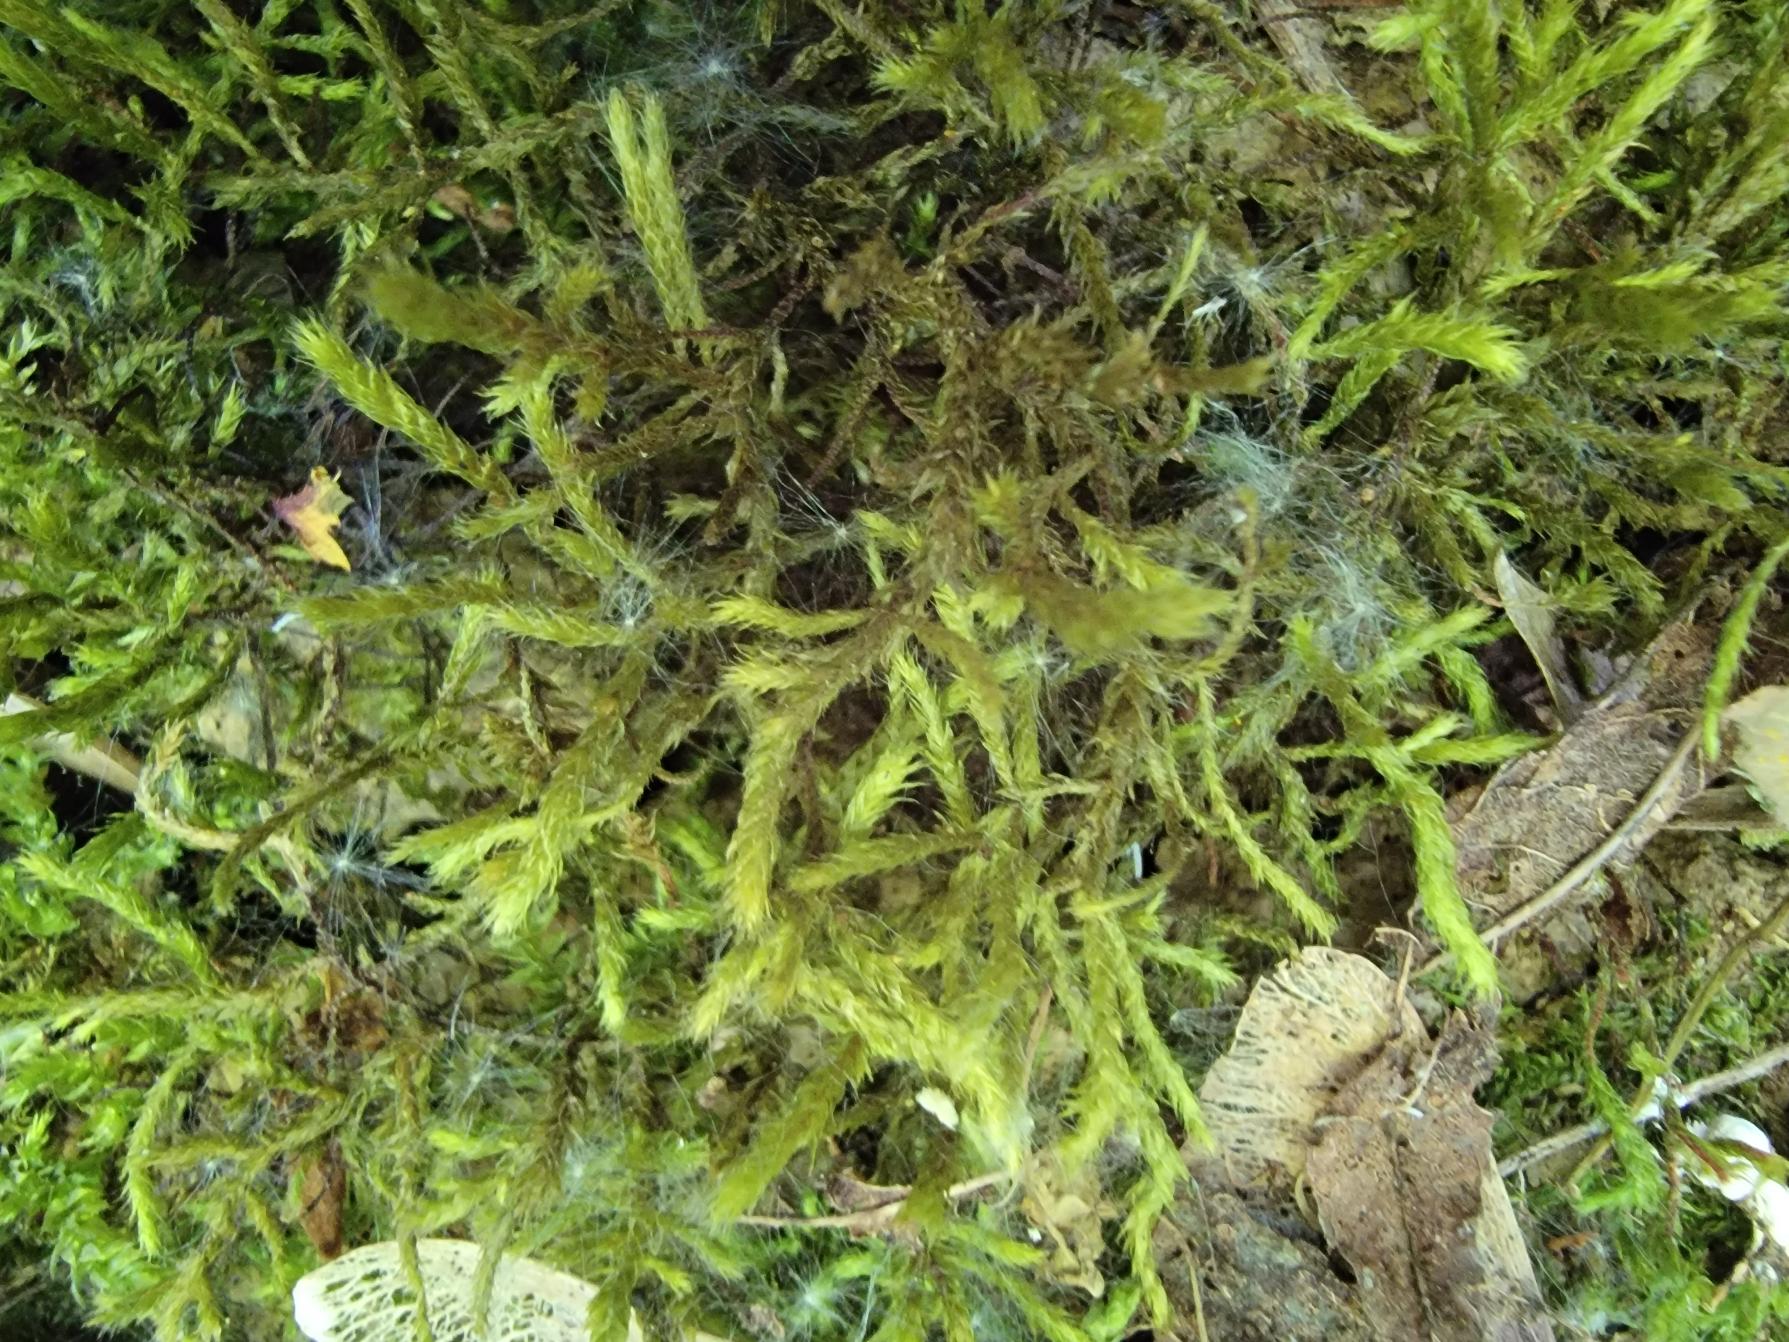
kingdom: Plantae
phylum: Bryophyta
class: Bryopsida
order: Hypnales
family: Antitrichiaceae
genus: Antitrichia
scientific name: Antitrichia curtipendula
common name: Åben krogtand
